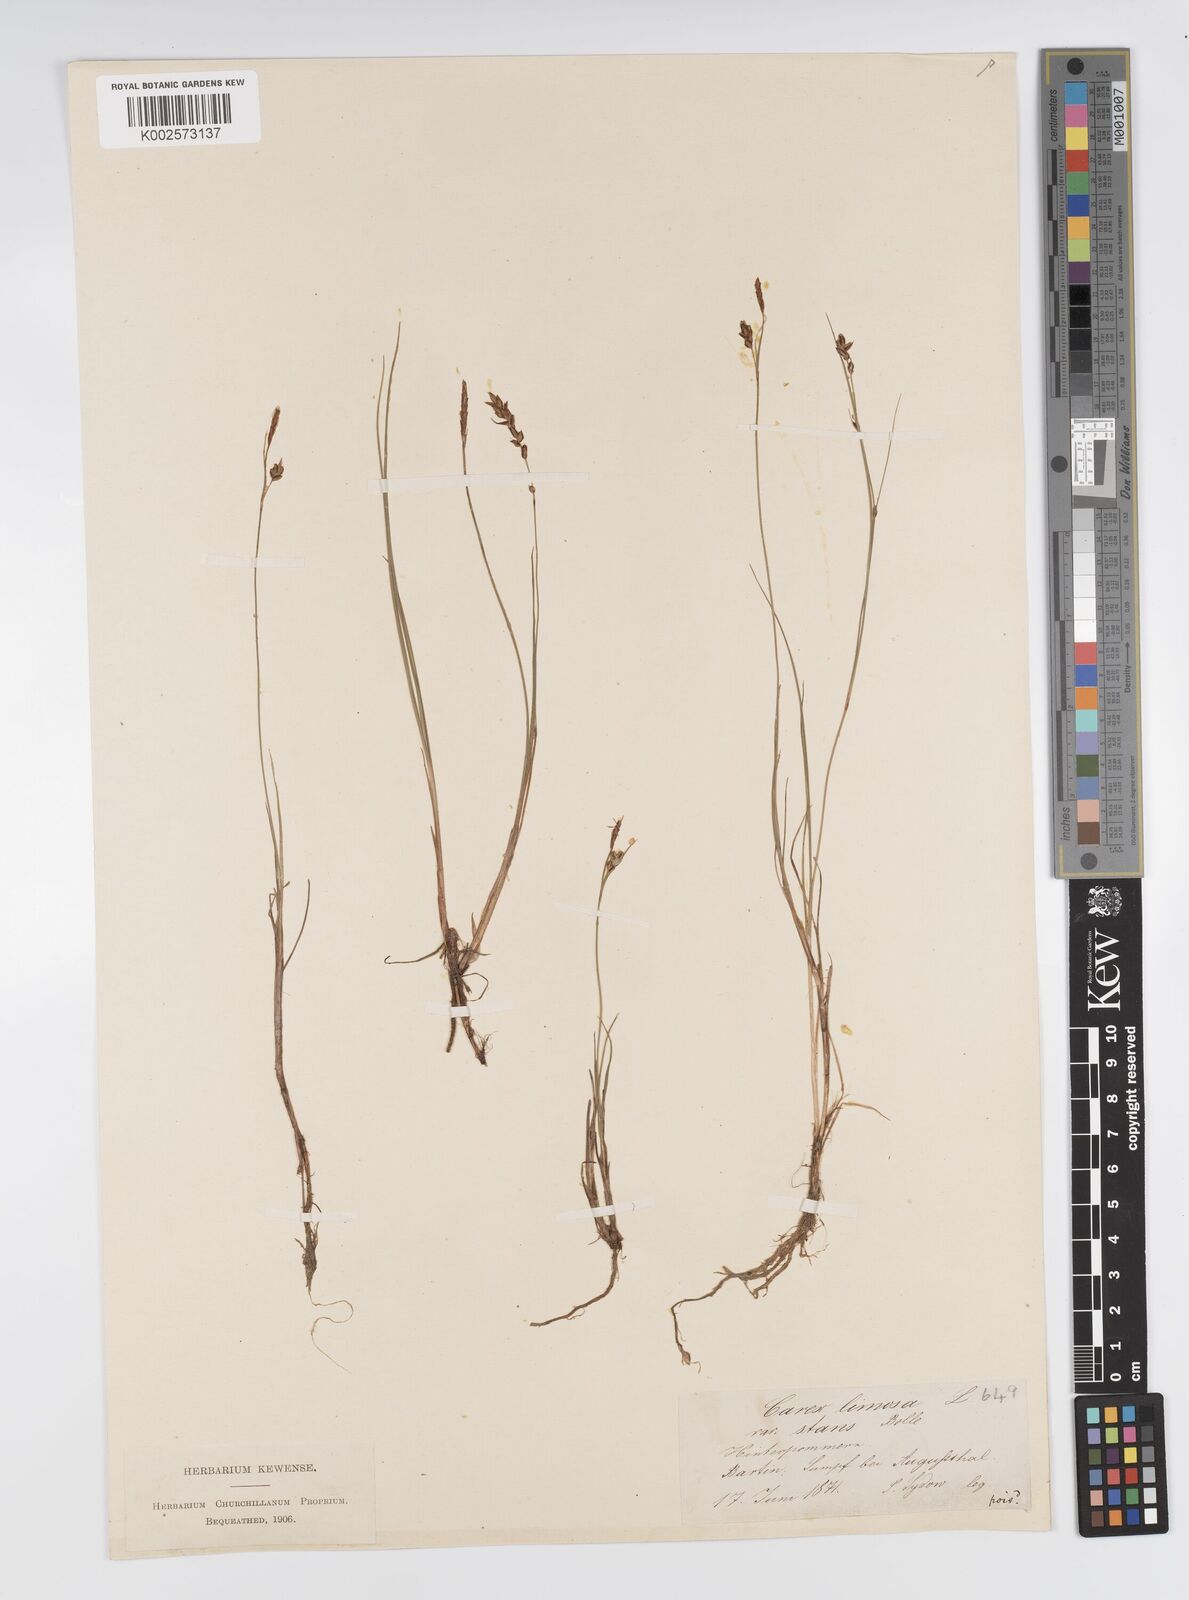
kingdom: Plantae
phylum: Tracheophyta
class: Liliopsida
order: Poales
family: Cyperaceae
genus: Carex
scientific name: Carex limosa
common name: Bog sedge
